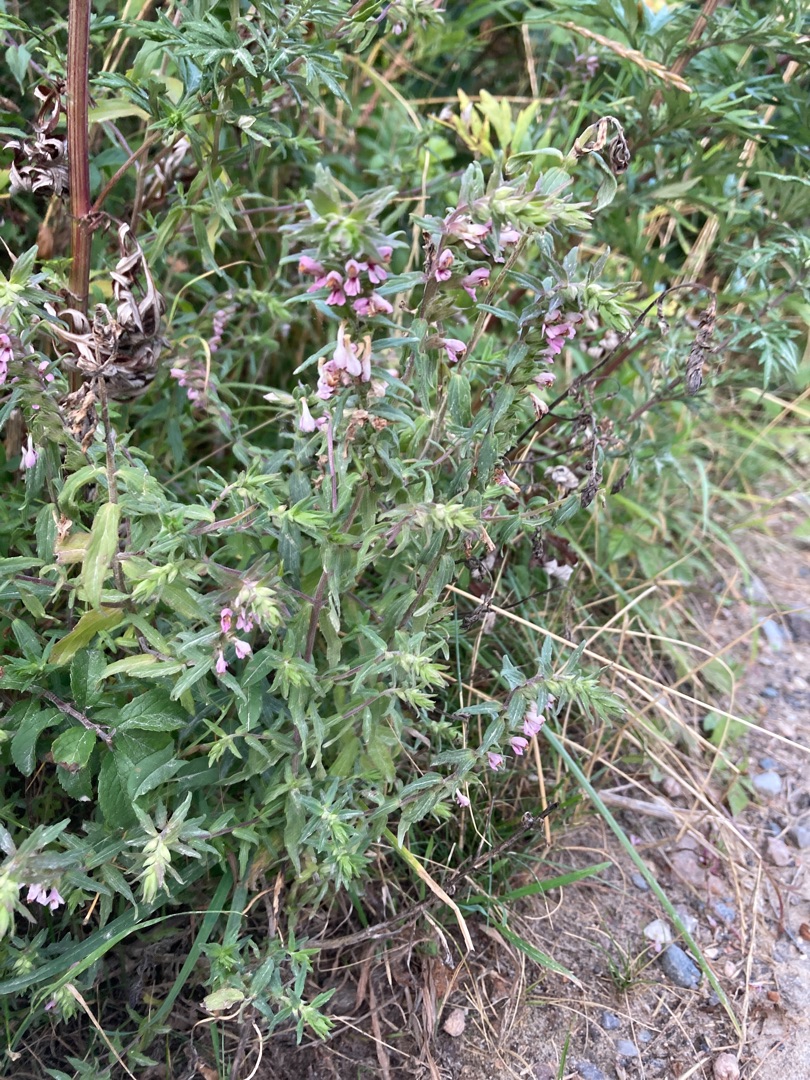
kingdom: Plantae
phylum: Tracheophyta
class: Magnoliopsida
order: Lamiales
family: Orobanchaceae
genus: Odontites
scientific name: Odontites vulgaris
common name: Høst-rødtop
